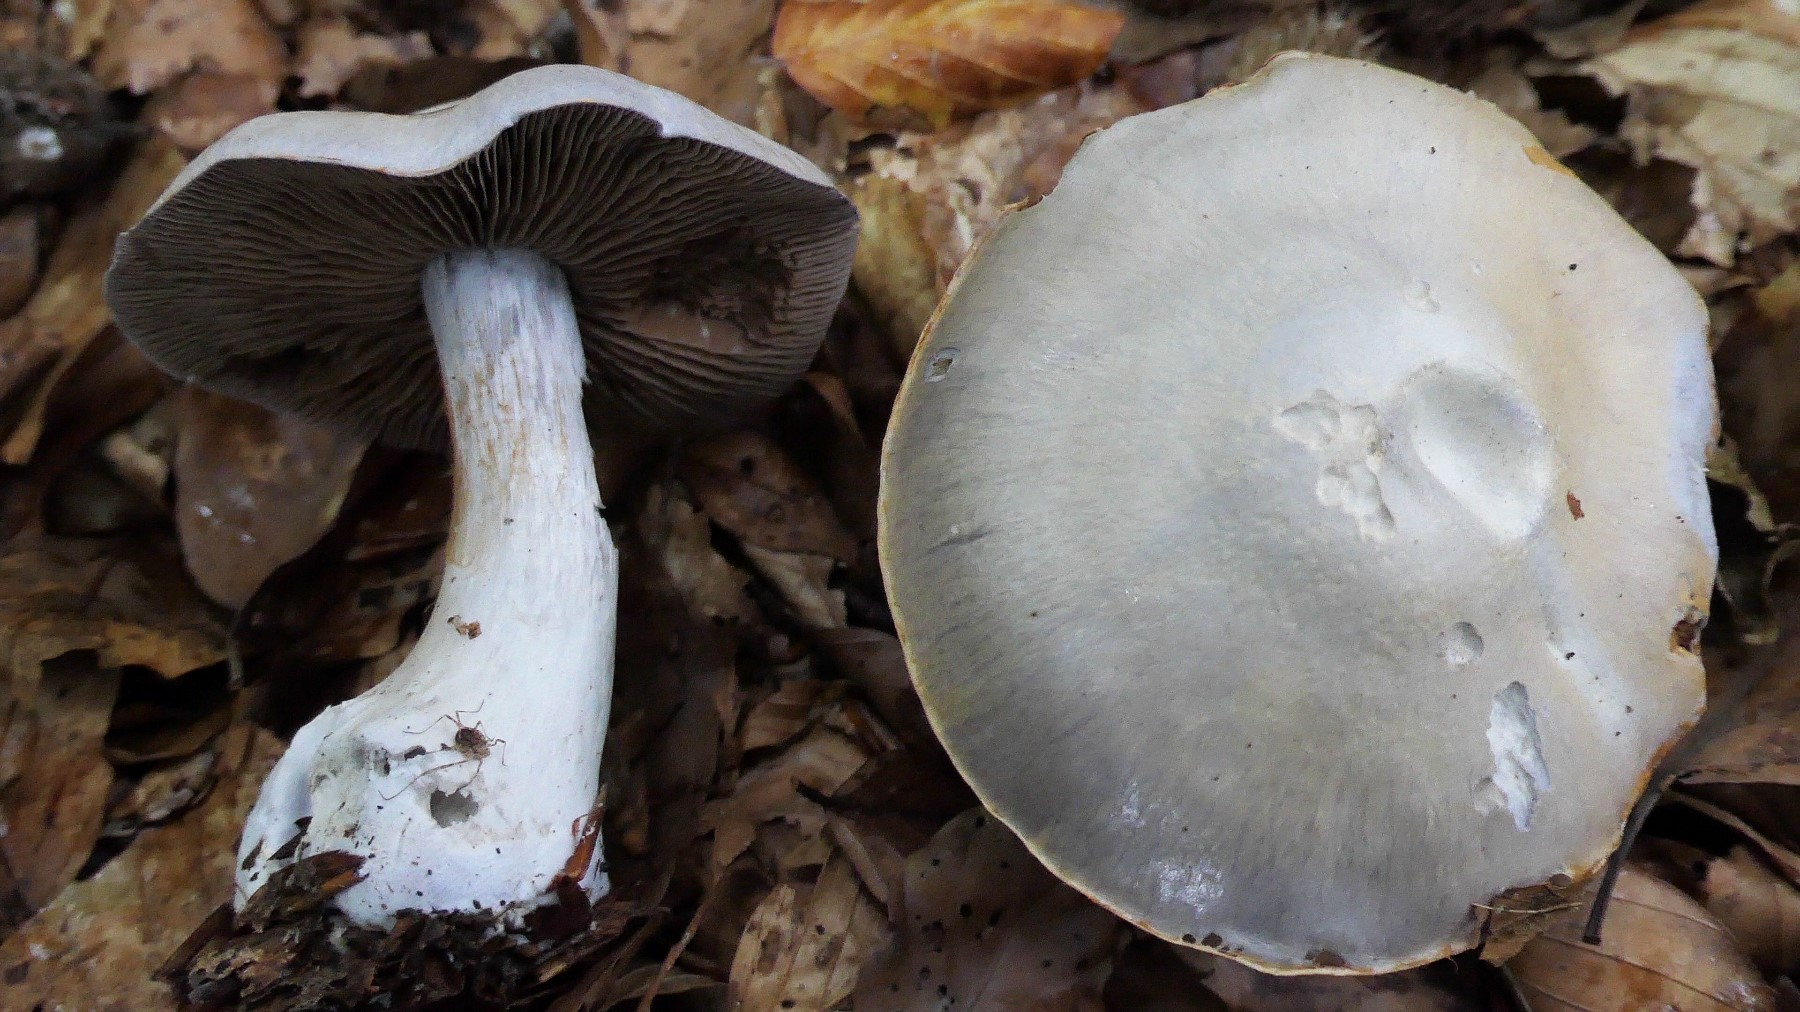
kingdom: Fungi
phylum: Basidiomycota
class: Agaricomycetes
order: Agaricales
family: Cortinariaceae
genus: Cortinarius
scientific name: Cortinarius alboviolaceus
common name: lysviolet slørhat
